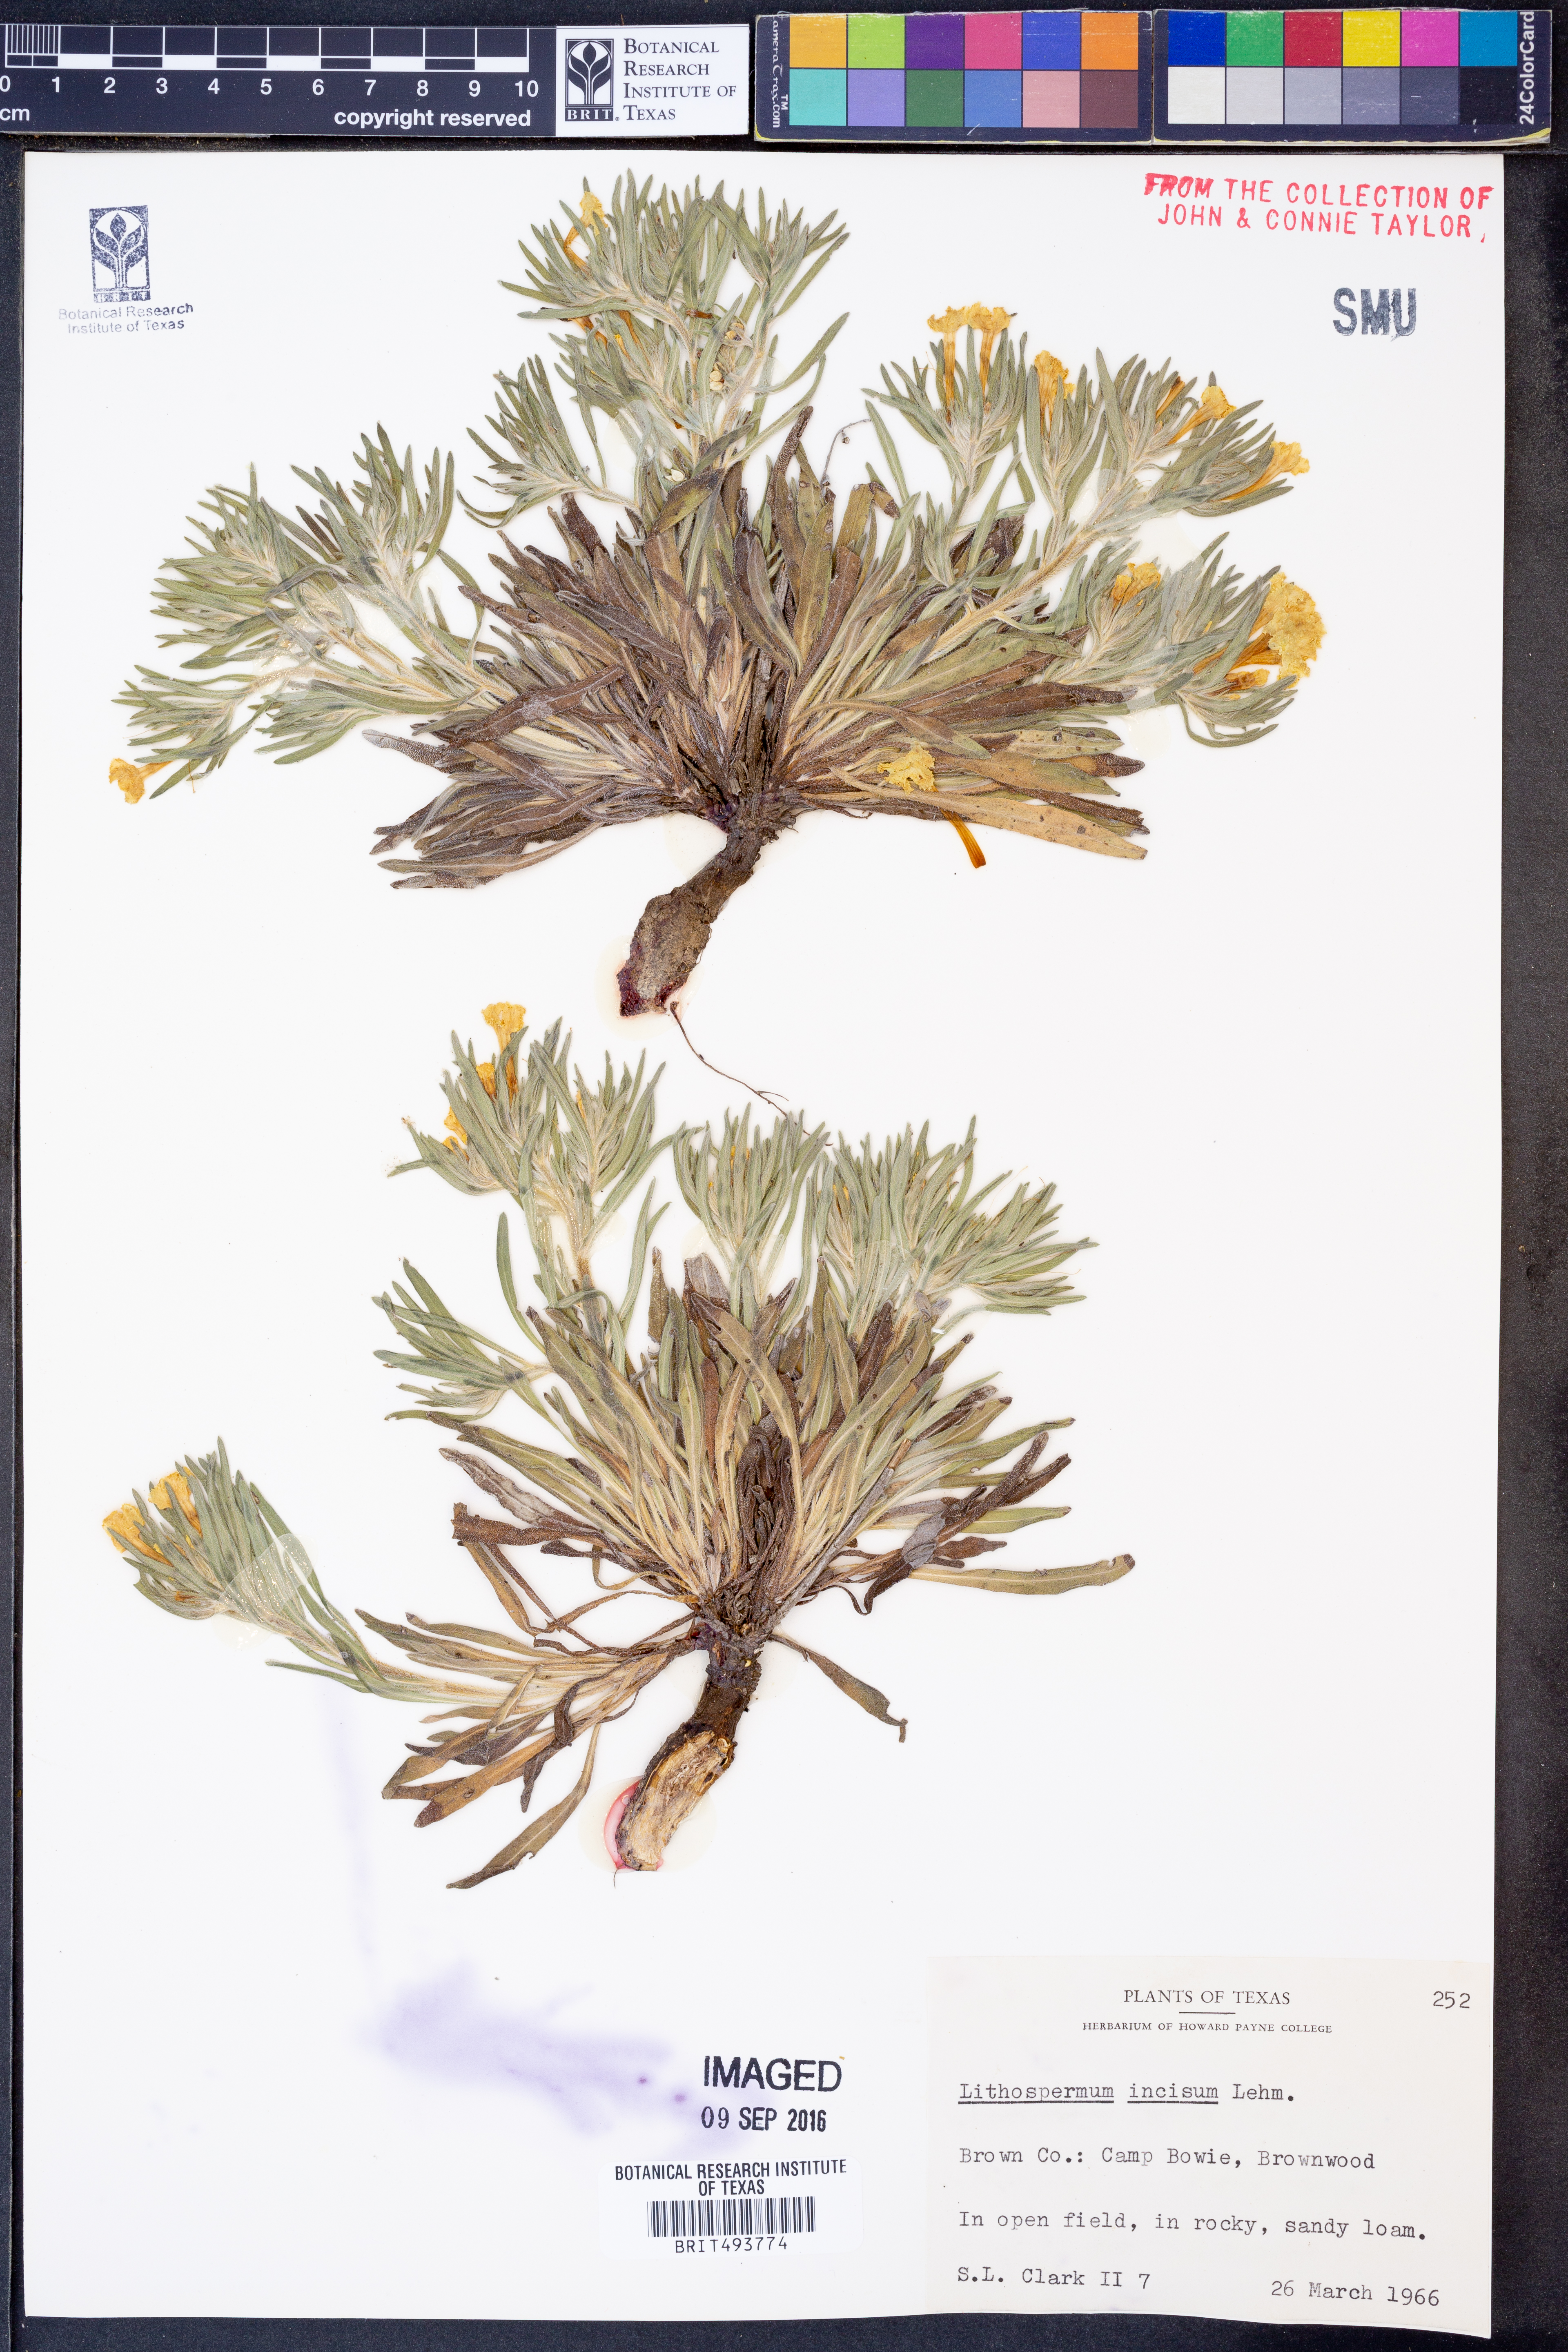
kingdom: Plantae
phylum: Tracheophyta
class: Magnoliopsida
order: Boraginales
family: Boraginaceae
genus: Lithospermum
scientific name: Lithospermum incisum
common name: Fringed gromwell
